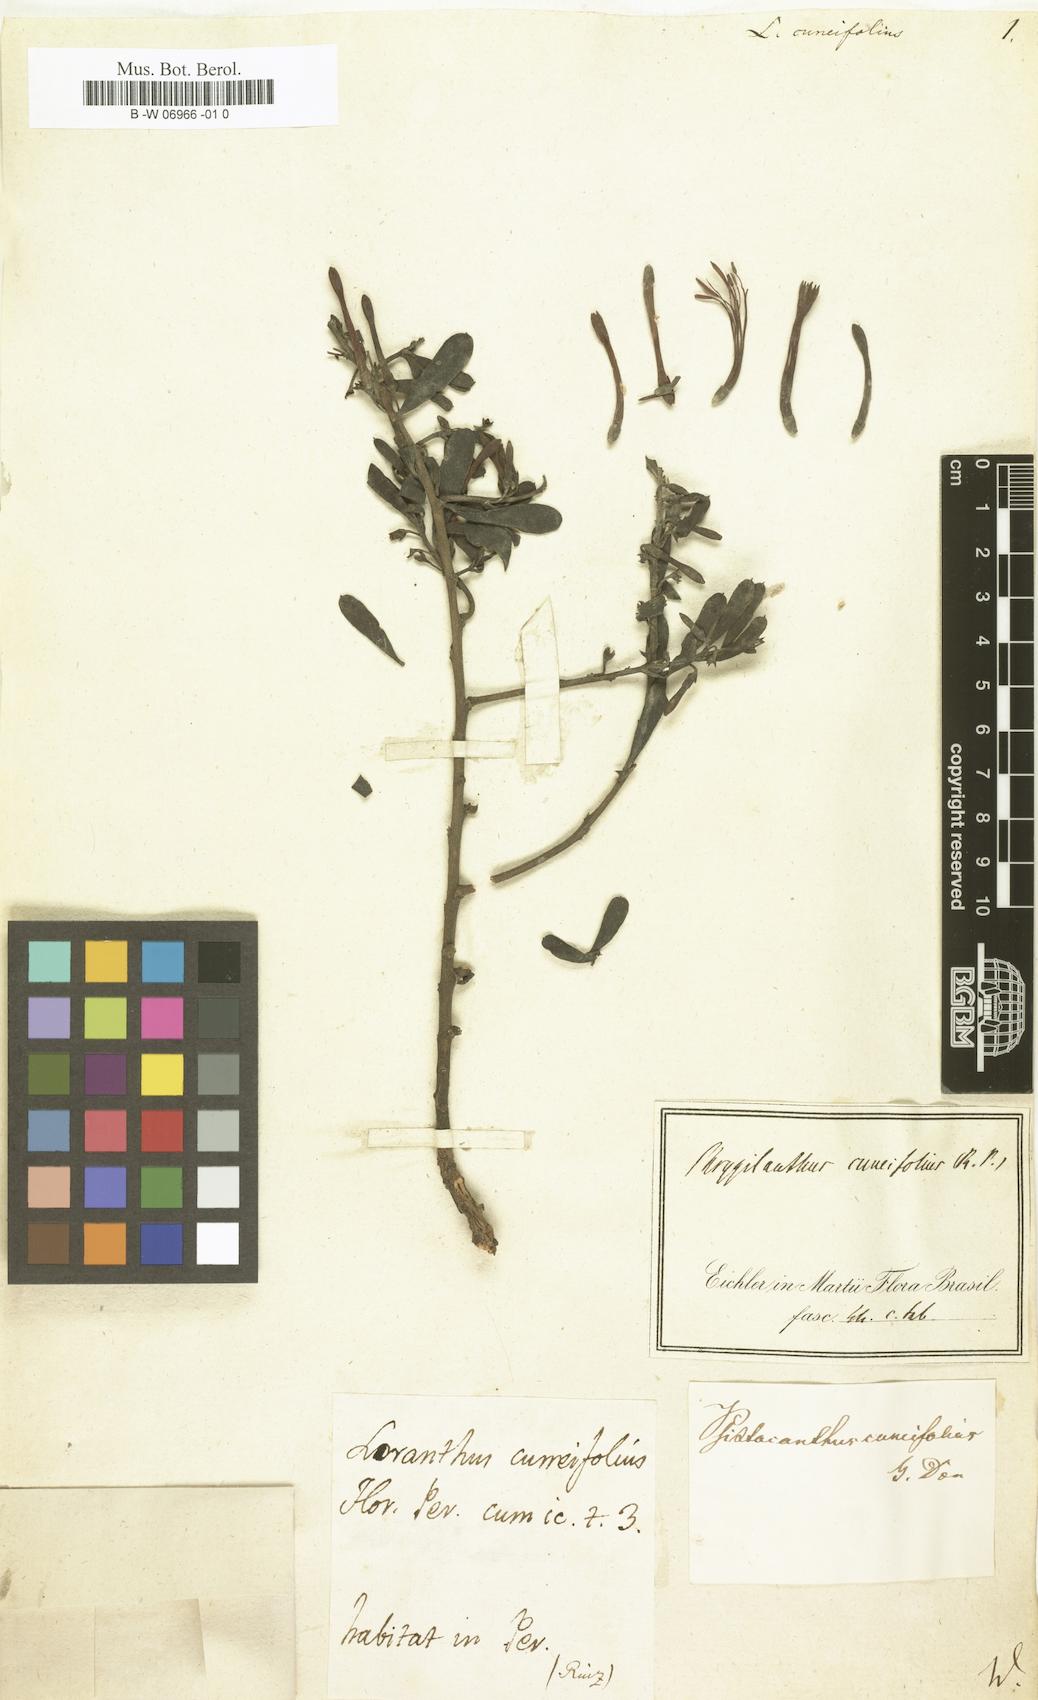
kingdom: Plantae
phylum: Tracheophyta
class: Magnoliopsida
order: Santalales
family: Loranthaceae
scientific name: Loranthaceae
